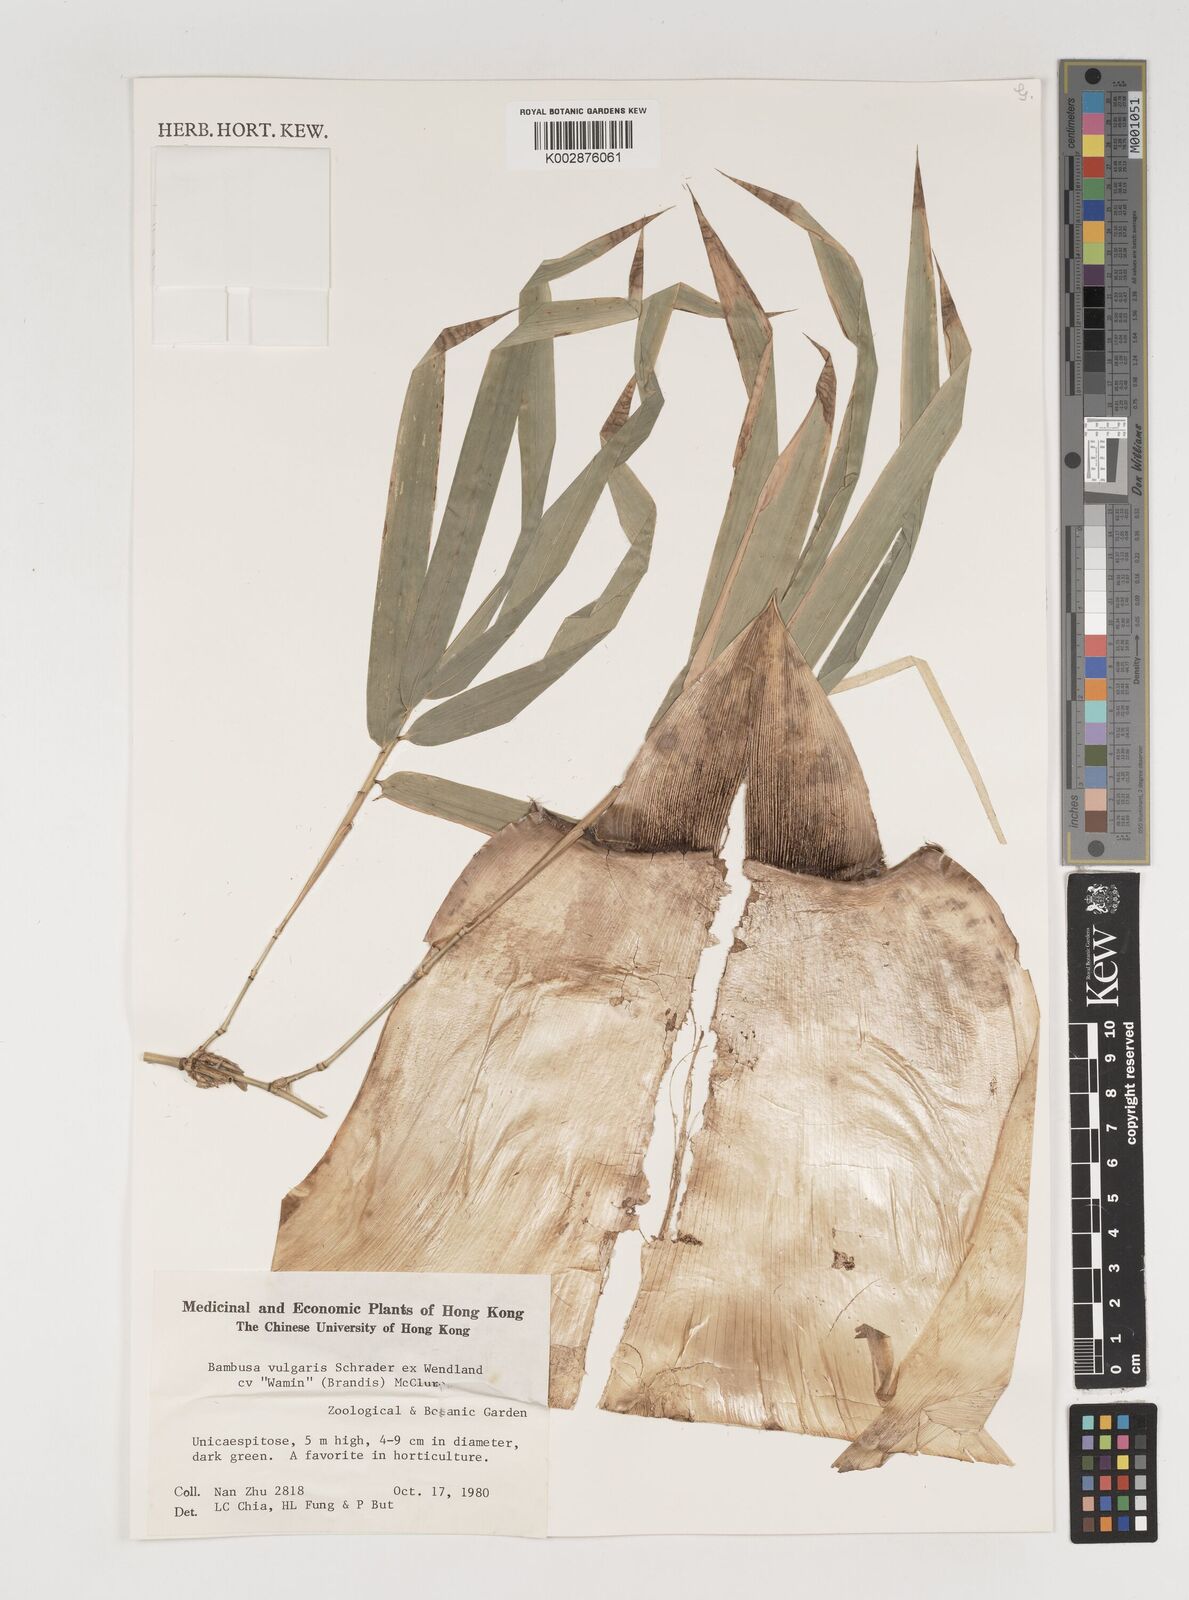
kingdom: Plantae
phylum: Tracheophyta
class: Liliopsida
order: Poales
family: Poaceae
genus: Bambusa
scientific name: Bambusa vulgaris
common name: Common bamboo
